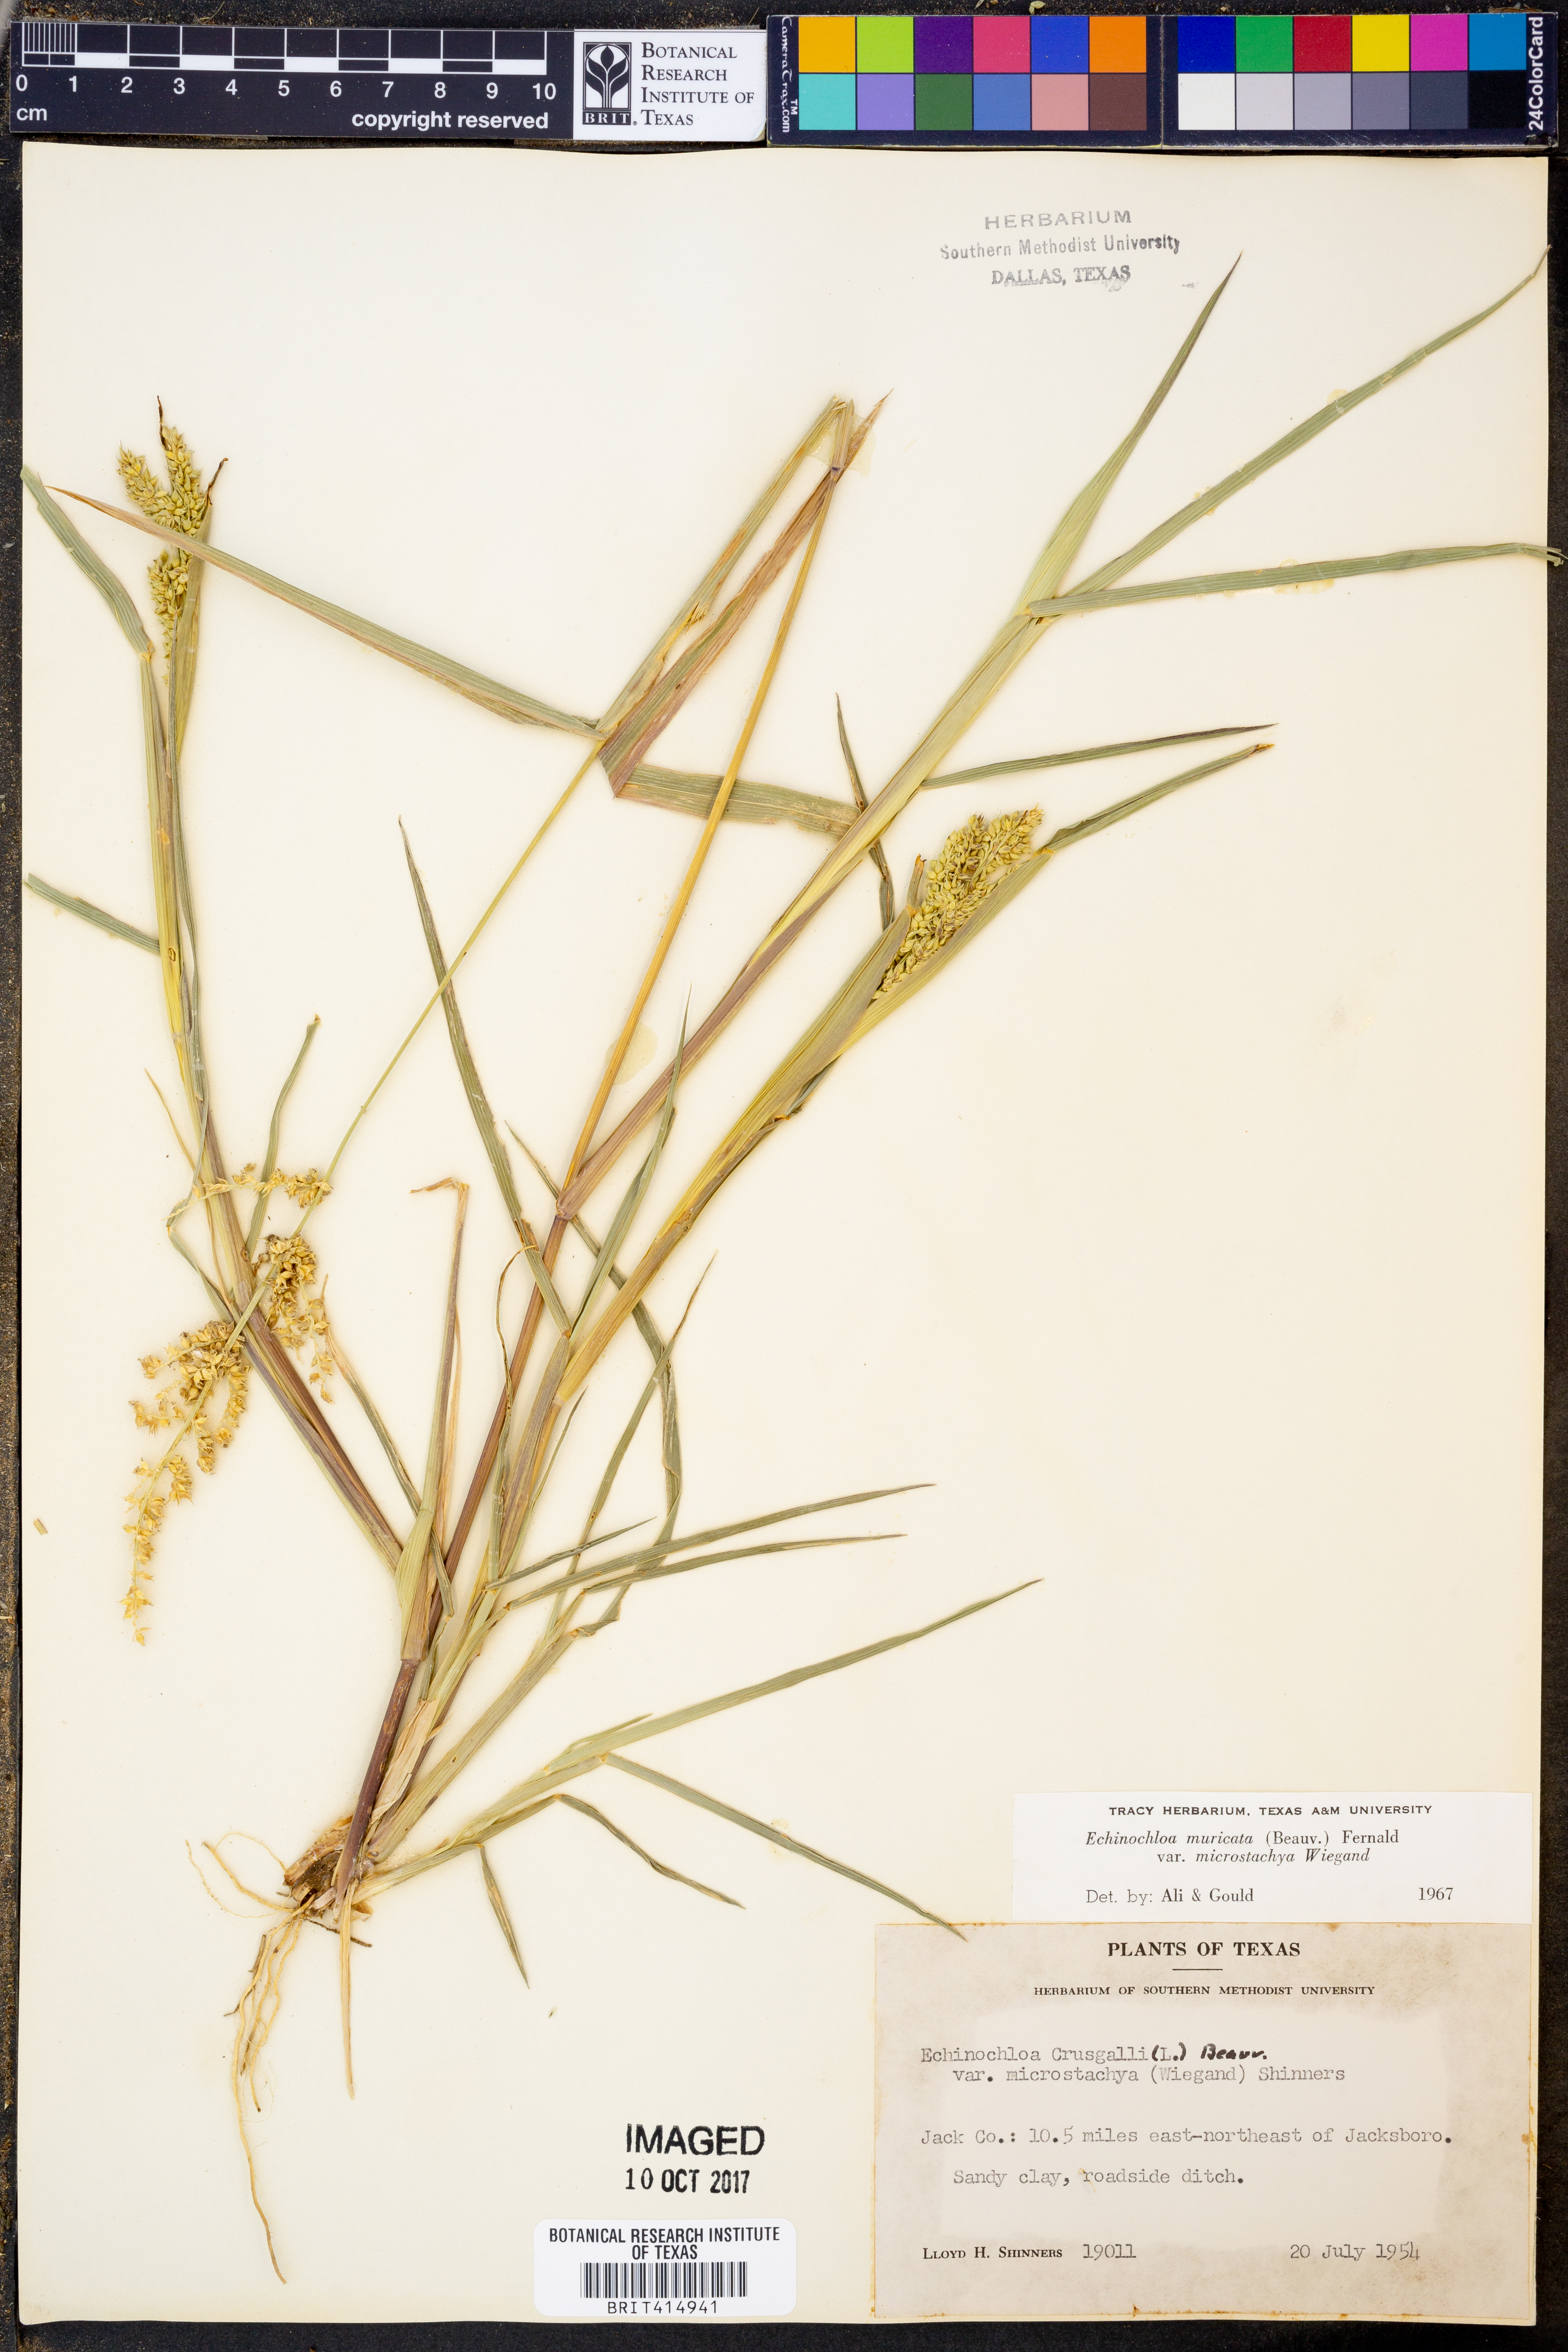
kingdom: Plantae
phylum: Tracheophyta
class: Liliopsida
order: Poales
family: Poaceae
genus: Echinochloa
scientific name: Echinochloa muricata
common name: American barnyard grass
